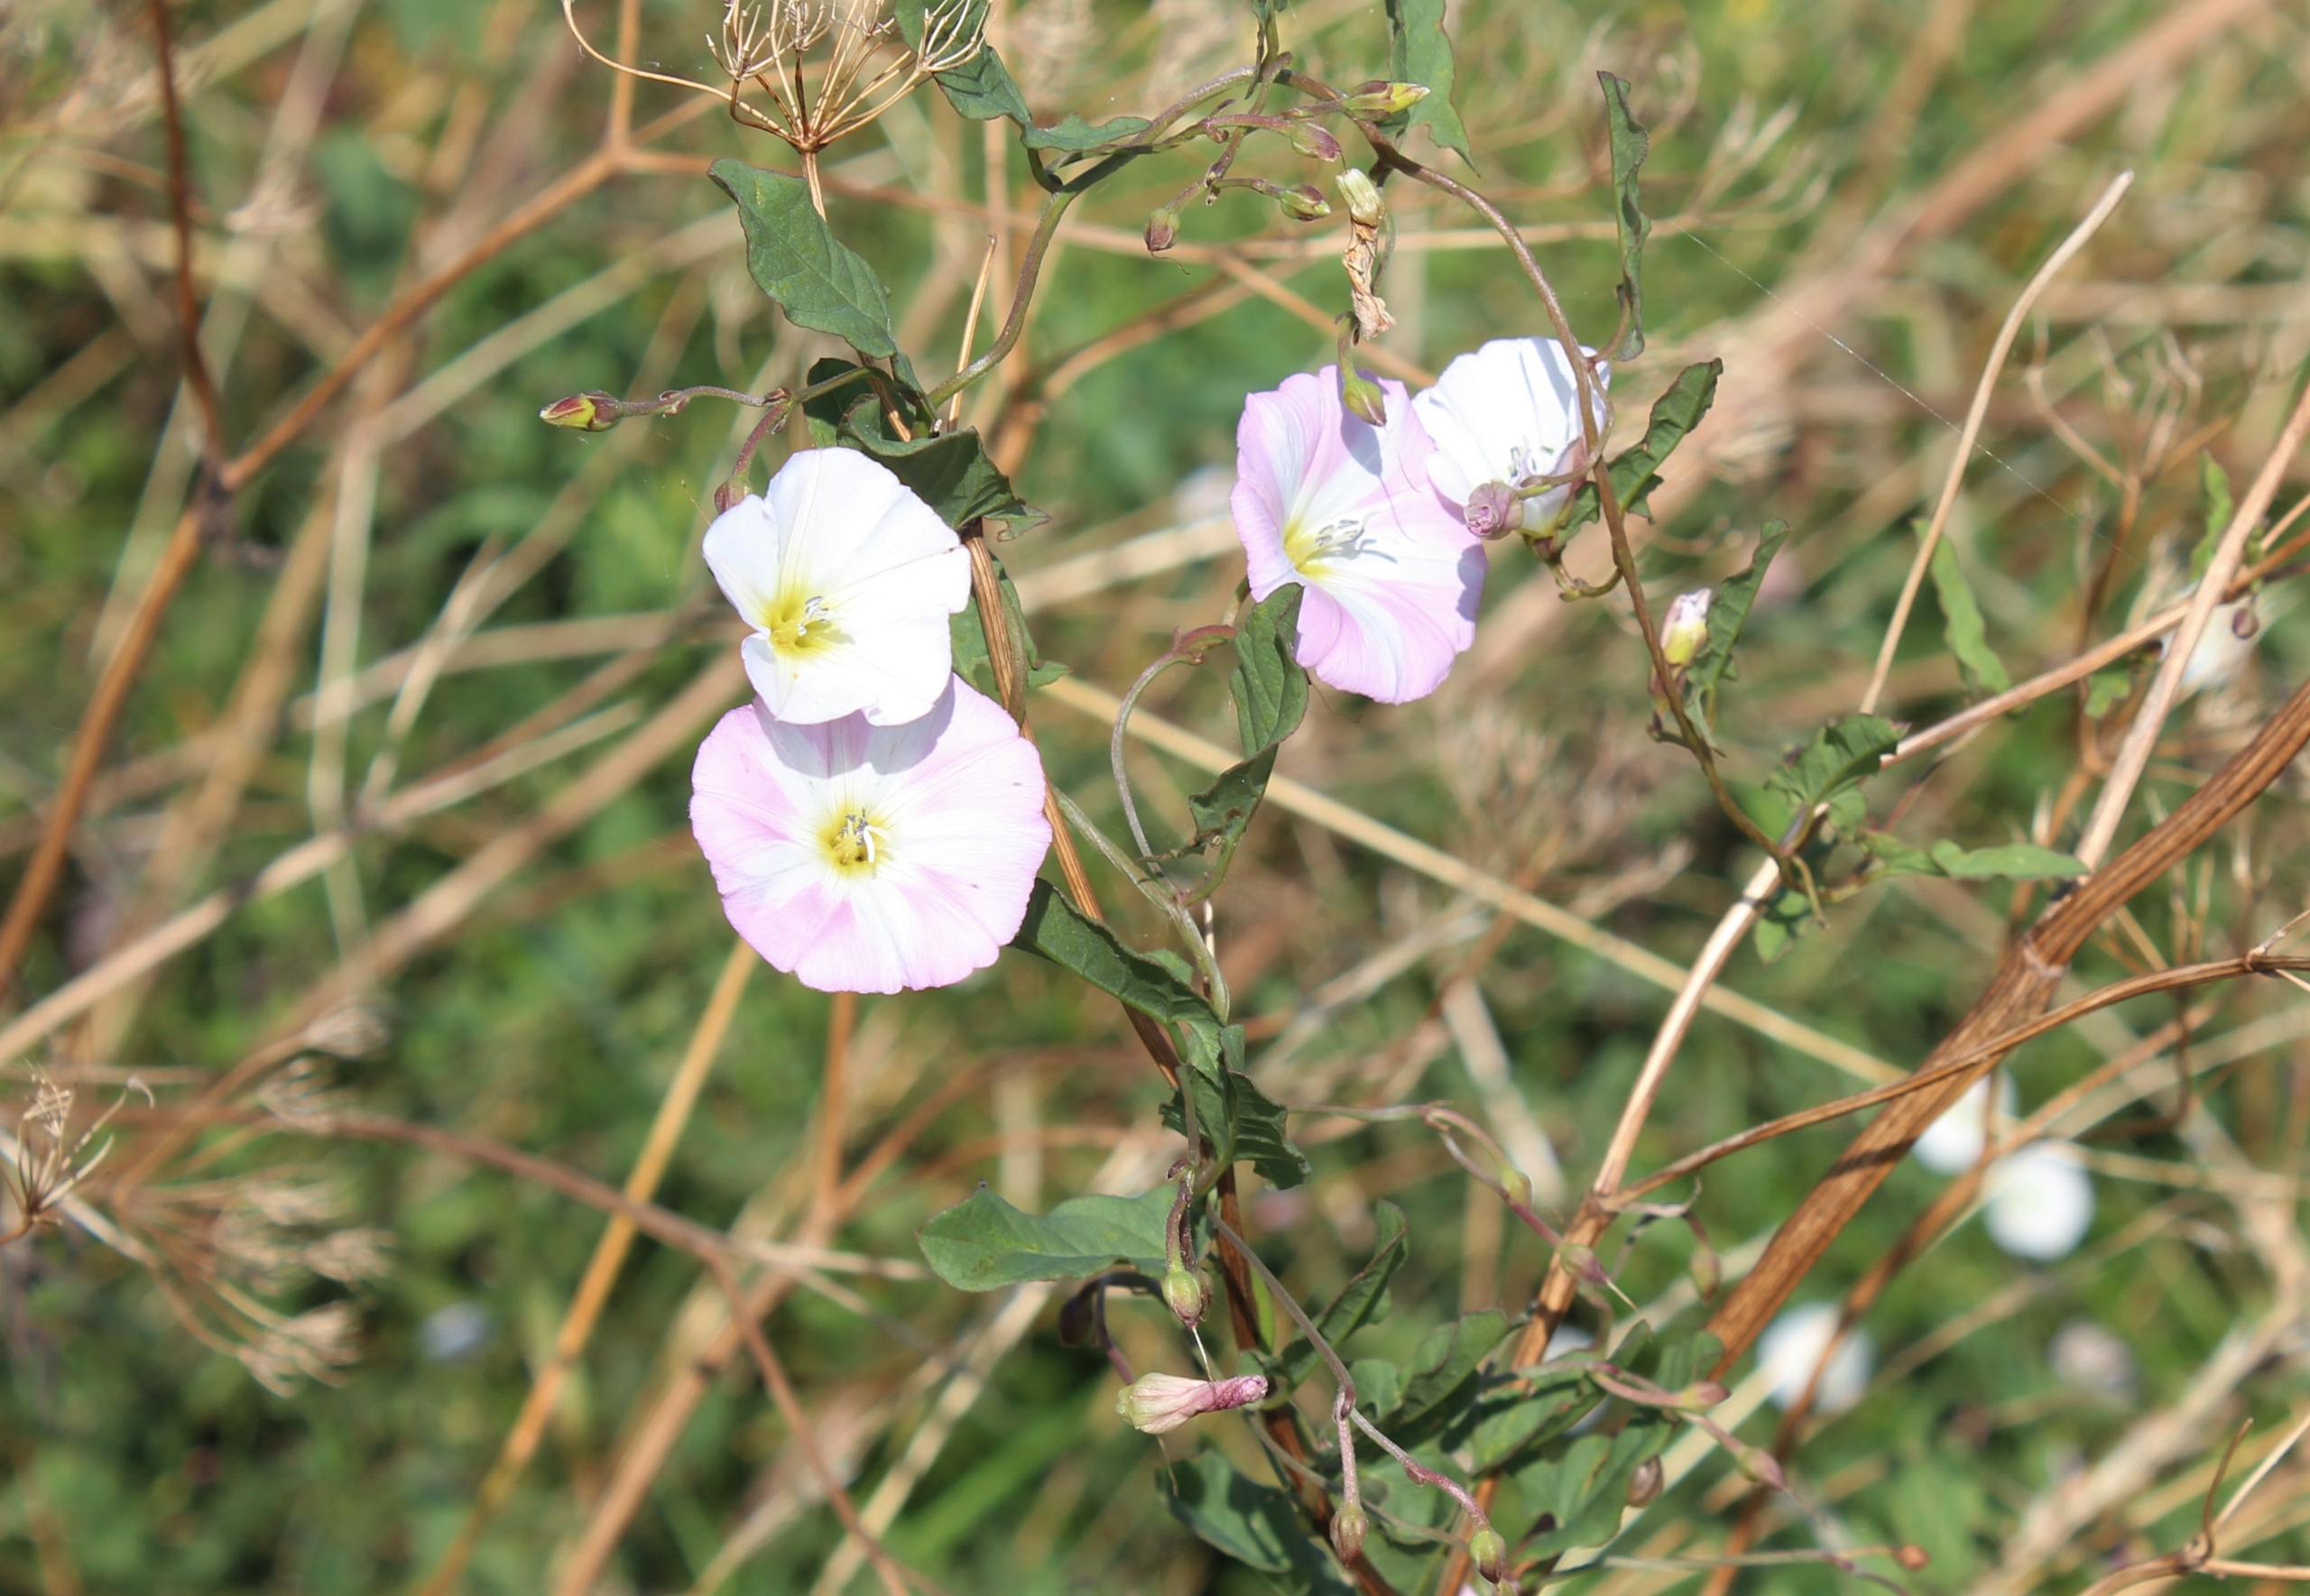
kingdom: Plantae
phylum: Tracheophyta
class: Magnoliopsida
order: Solanales
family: Convolvulaceae
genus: Convolvulus
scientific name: Convolvulus arvensis
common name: Ager-snerle
